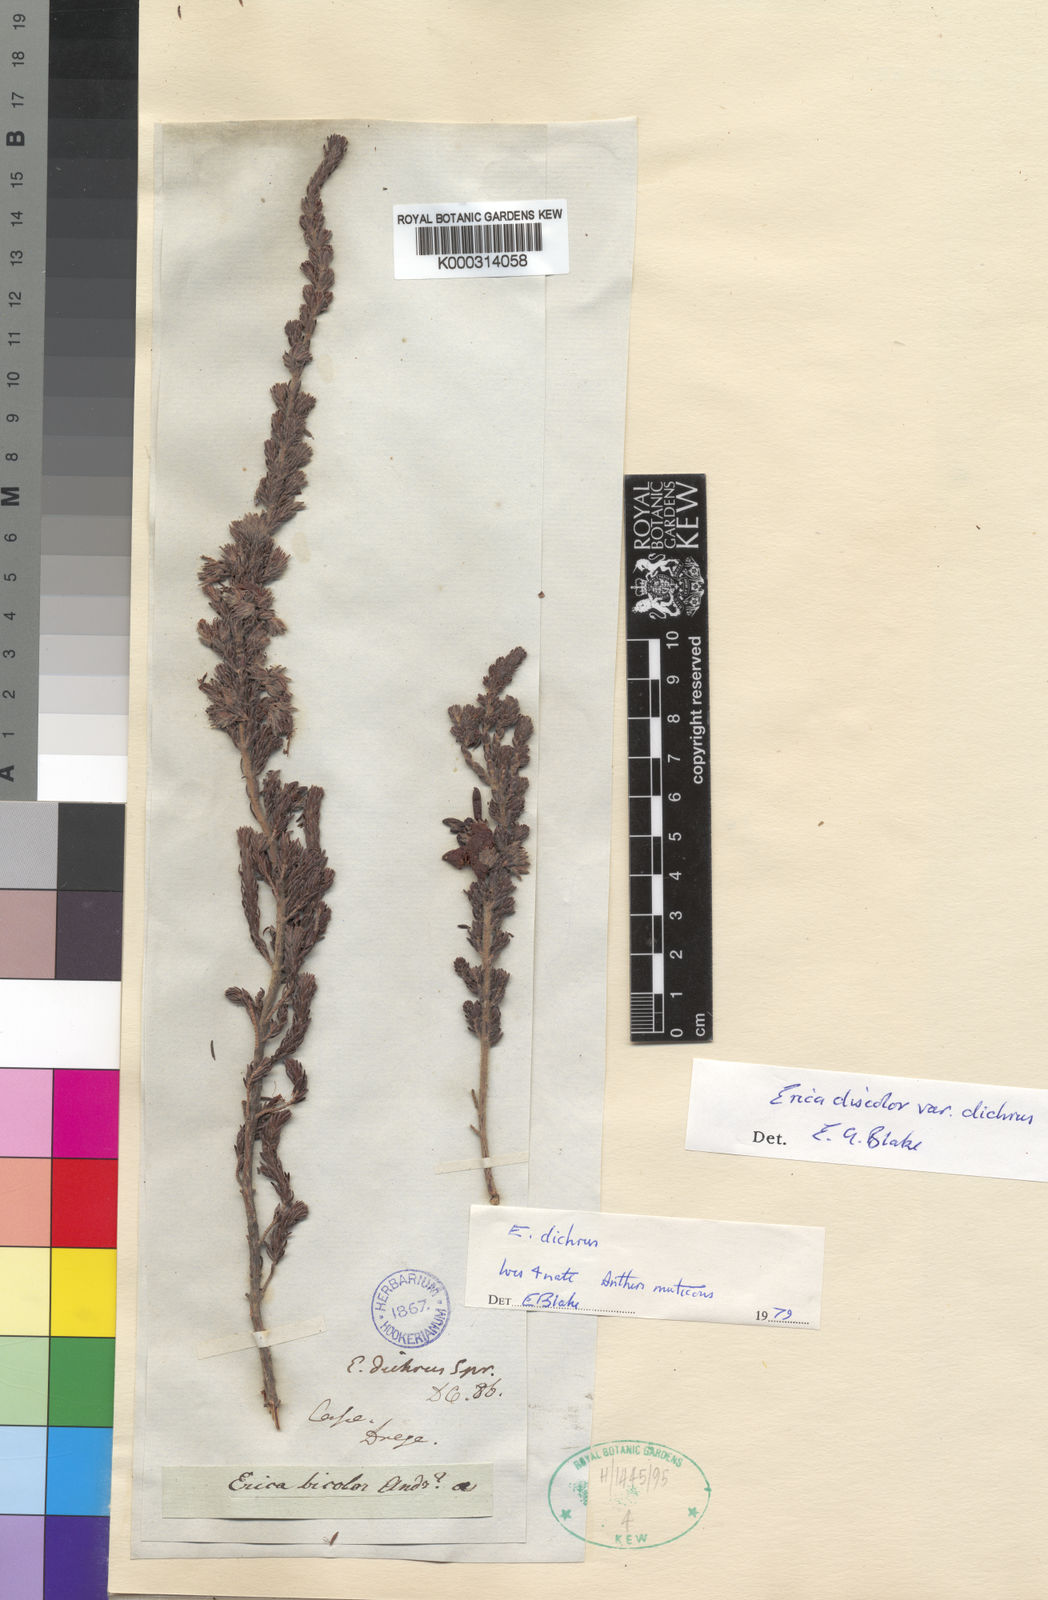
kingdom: Plantae
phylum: Tracheophyta
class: Magnoliopsida
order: Ericales
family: Ericaceae
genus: Erica
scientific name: Erica unicolor
